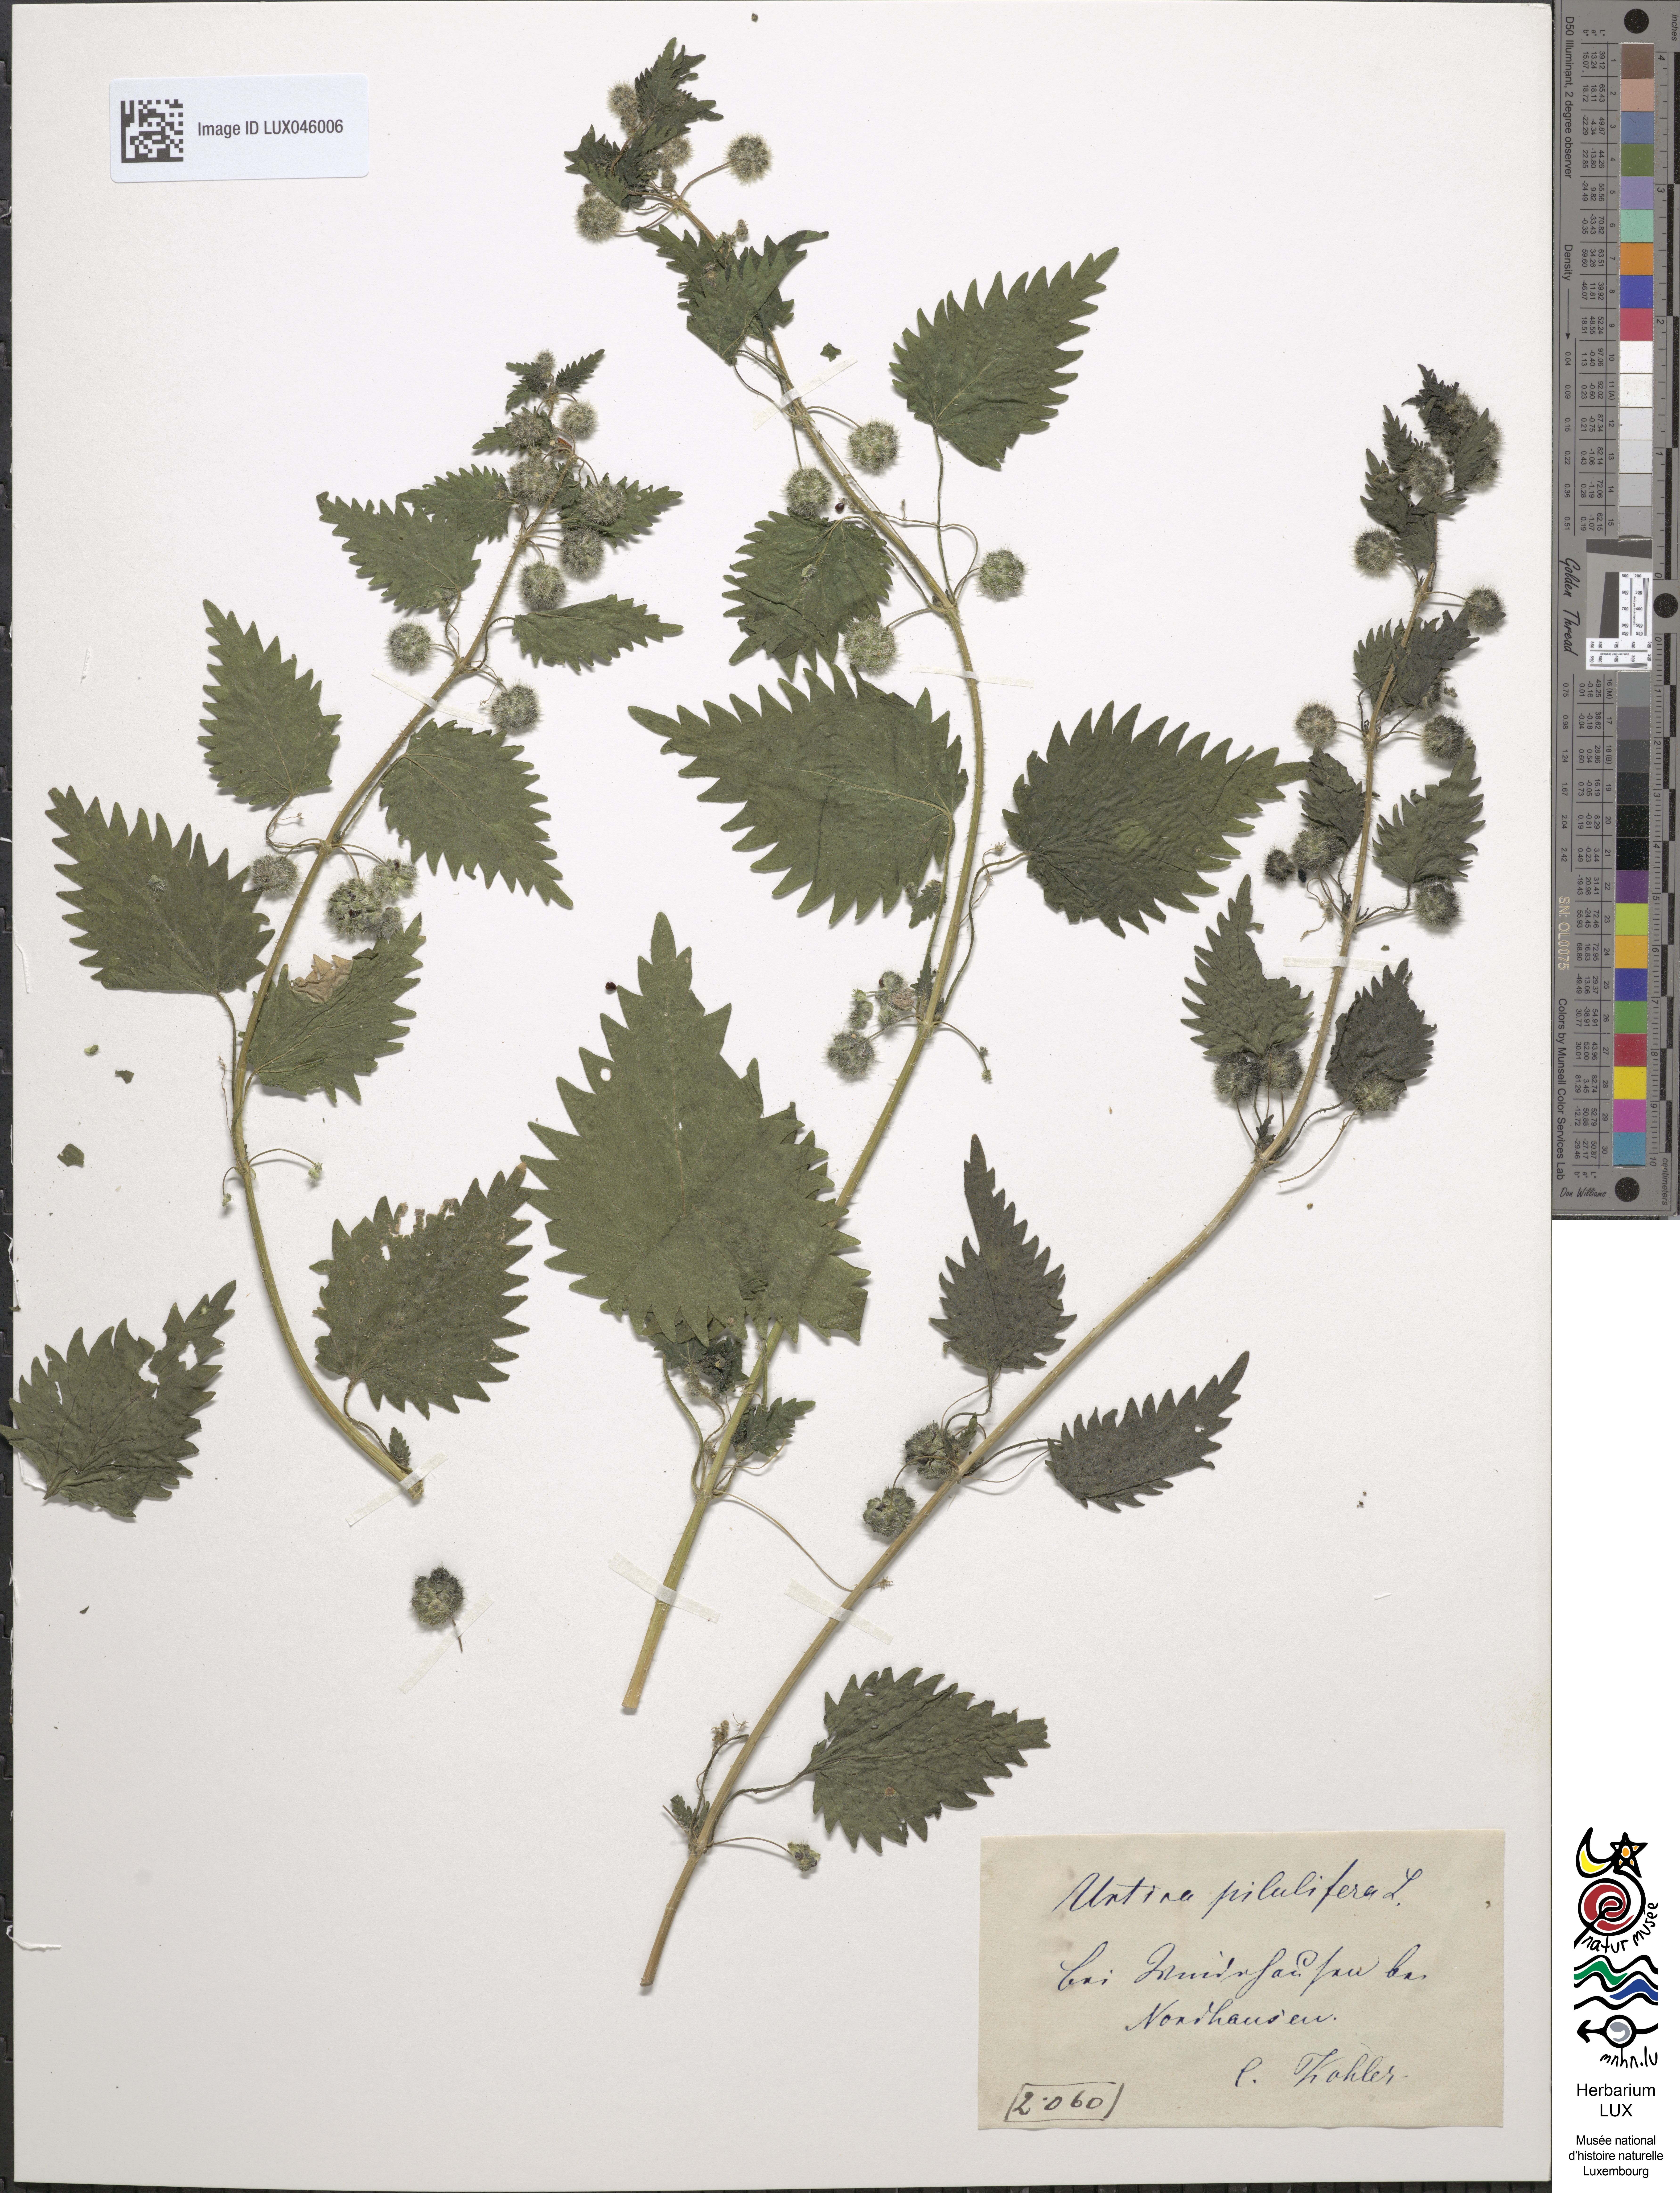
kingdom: Plantae
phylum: Tracheophyta
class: Magnoliopsida
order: Rosales
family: Urticaceae
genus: Urtica
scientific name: Urtica pilulifera
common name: Roman nettle
